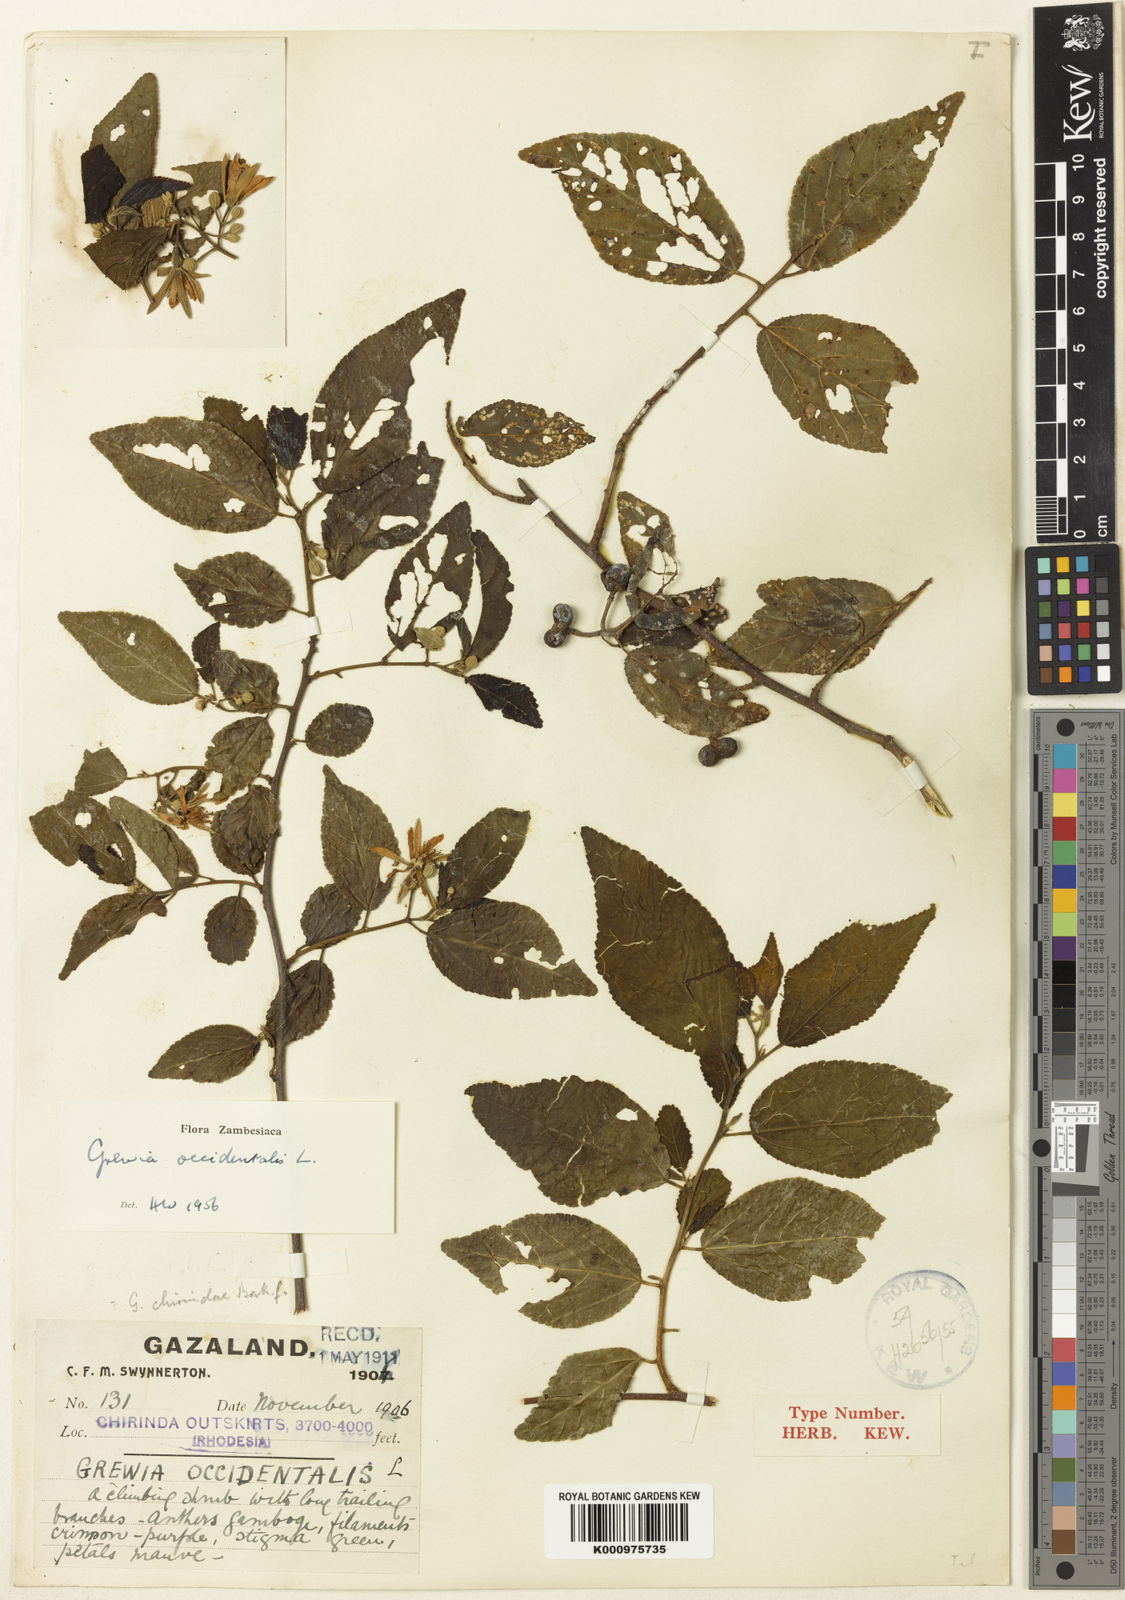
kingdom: Plantae
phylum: Tracheophyta
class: Magnoliopsida
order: Malvales
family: Malvaceae
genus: Grewia
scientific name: Grewia occidentalis
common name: Crossberry
